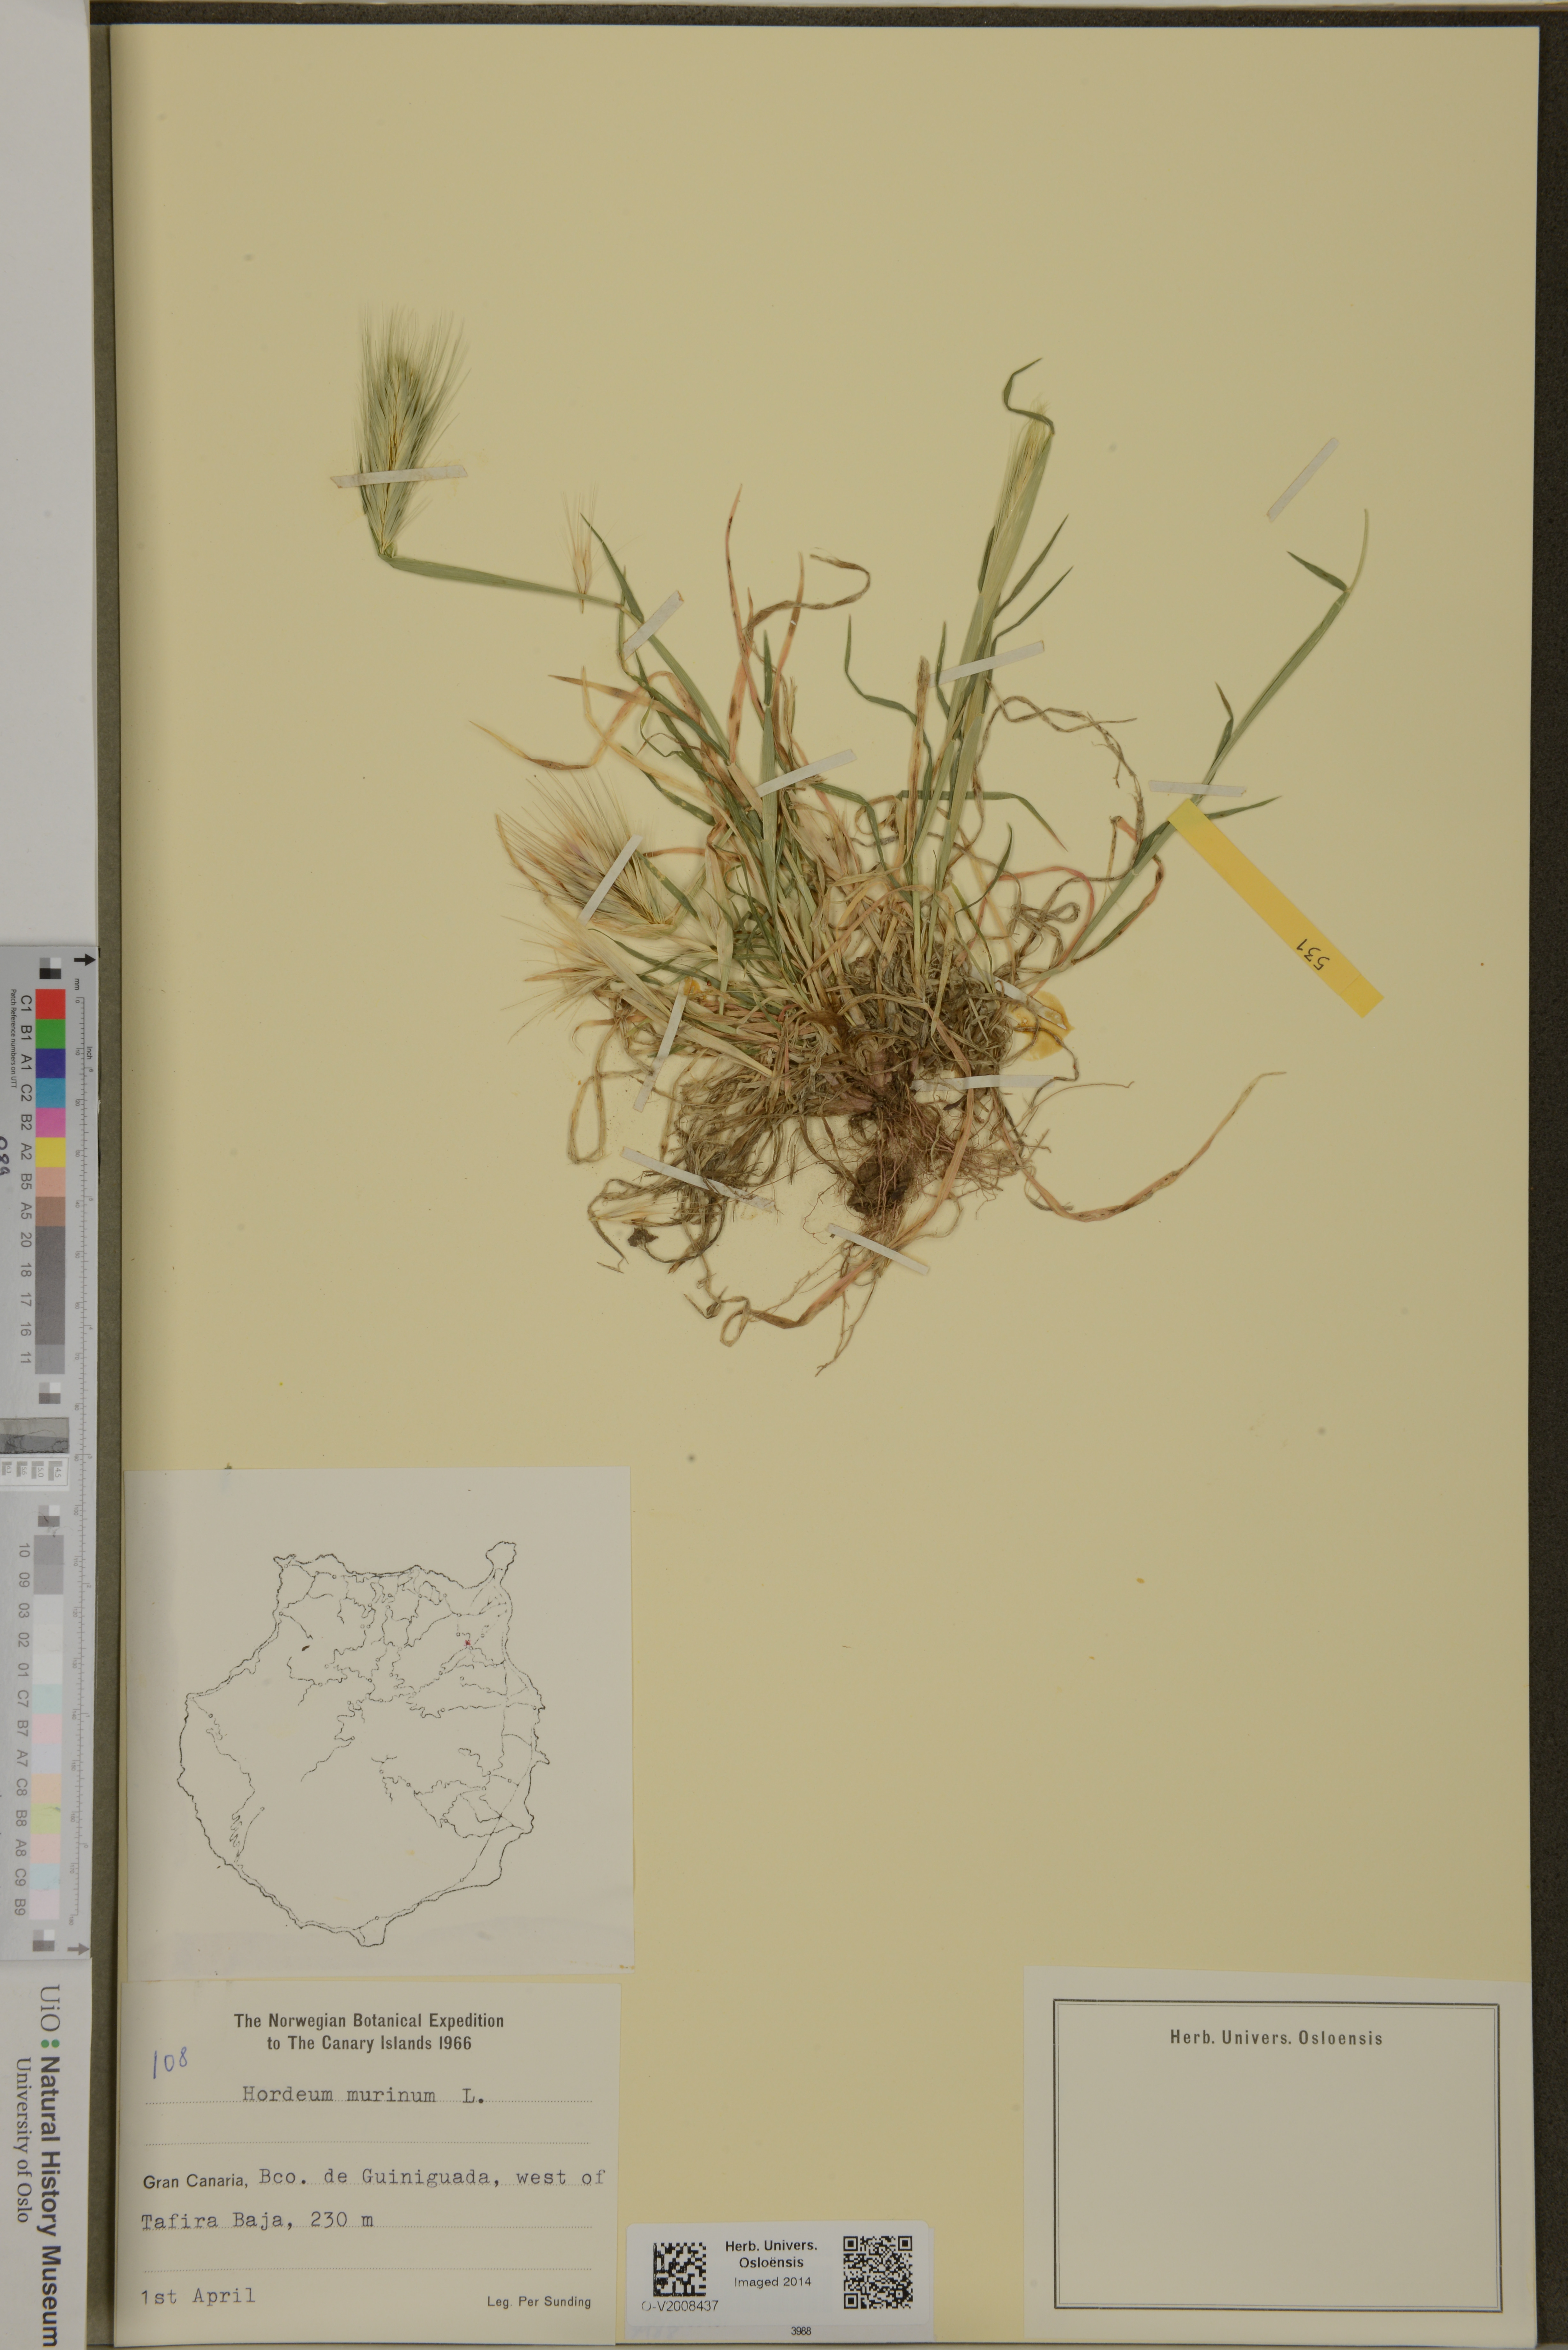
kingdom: Plantae
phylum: Tracheophyta
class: Liliopsida
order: Poales
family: Poaceae
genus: Hordeum
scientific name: Hordeum murinum
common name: Wall barley
